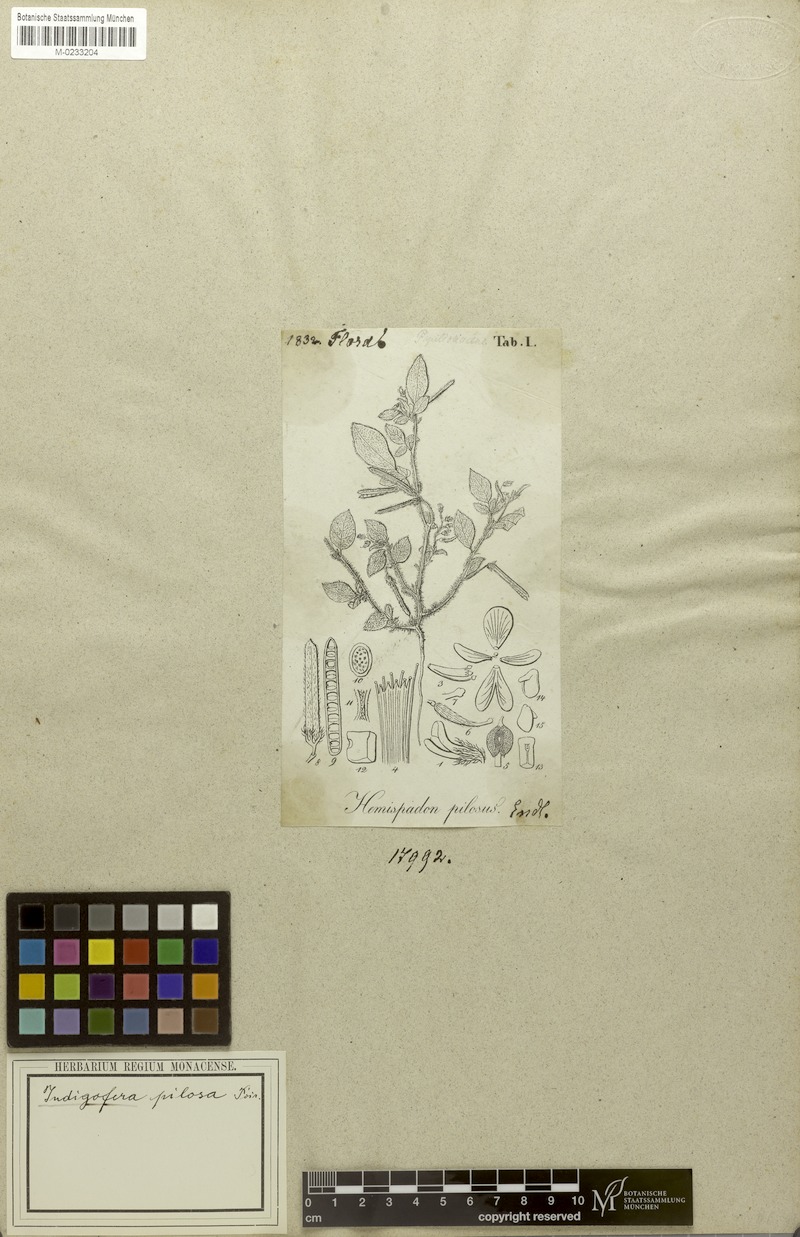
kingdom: Plantae
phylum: Tracheophyta
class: Magnoliopsida
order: Fabales
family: Fabaceae
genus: Indigofera
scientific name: Indigofera pilosa
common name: Softhairy indigo
